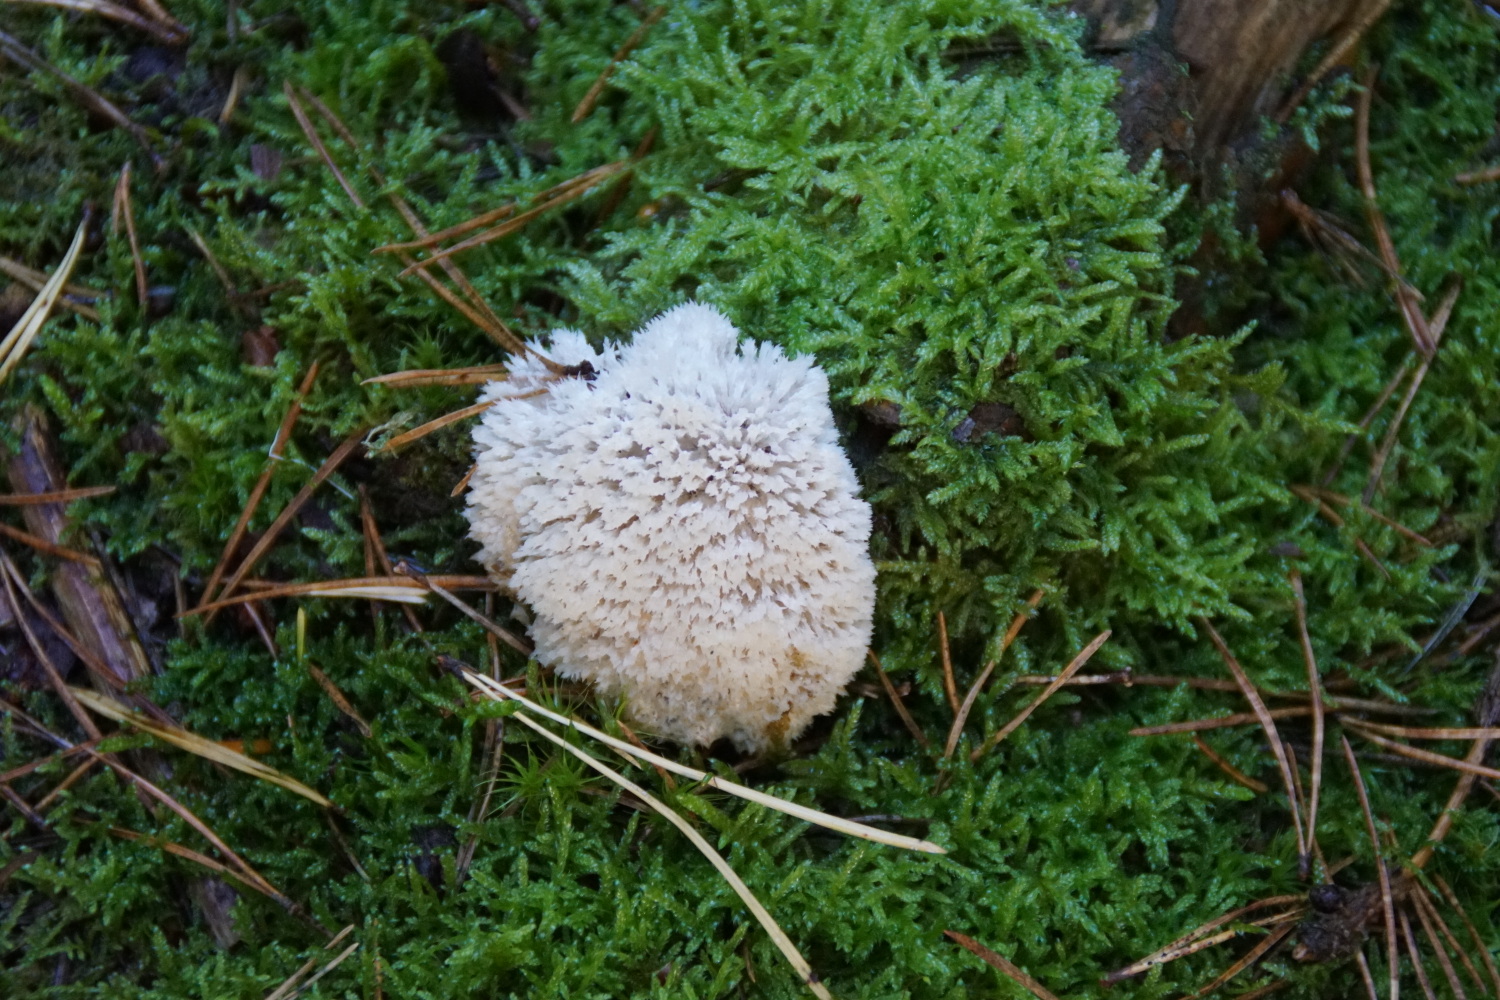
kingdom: Fungi
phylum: Basidiomycota
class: Agaricomycetes
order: Polyporales
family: Dacryobolaceae
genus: Postia
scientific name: Postia ptychogaster
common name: støvende kødporesvamp
